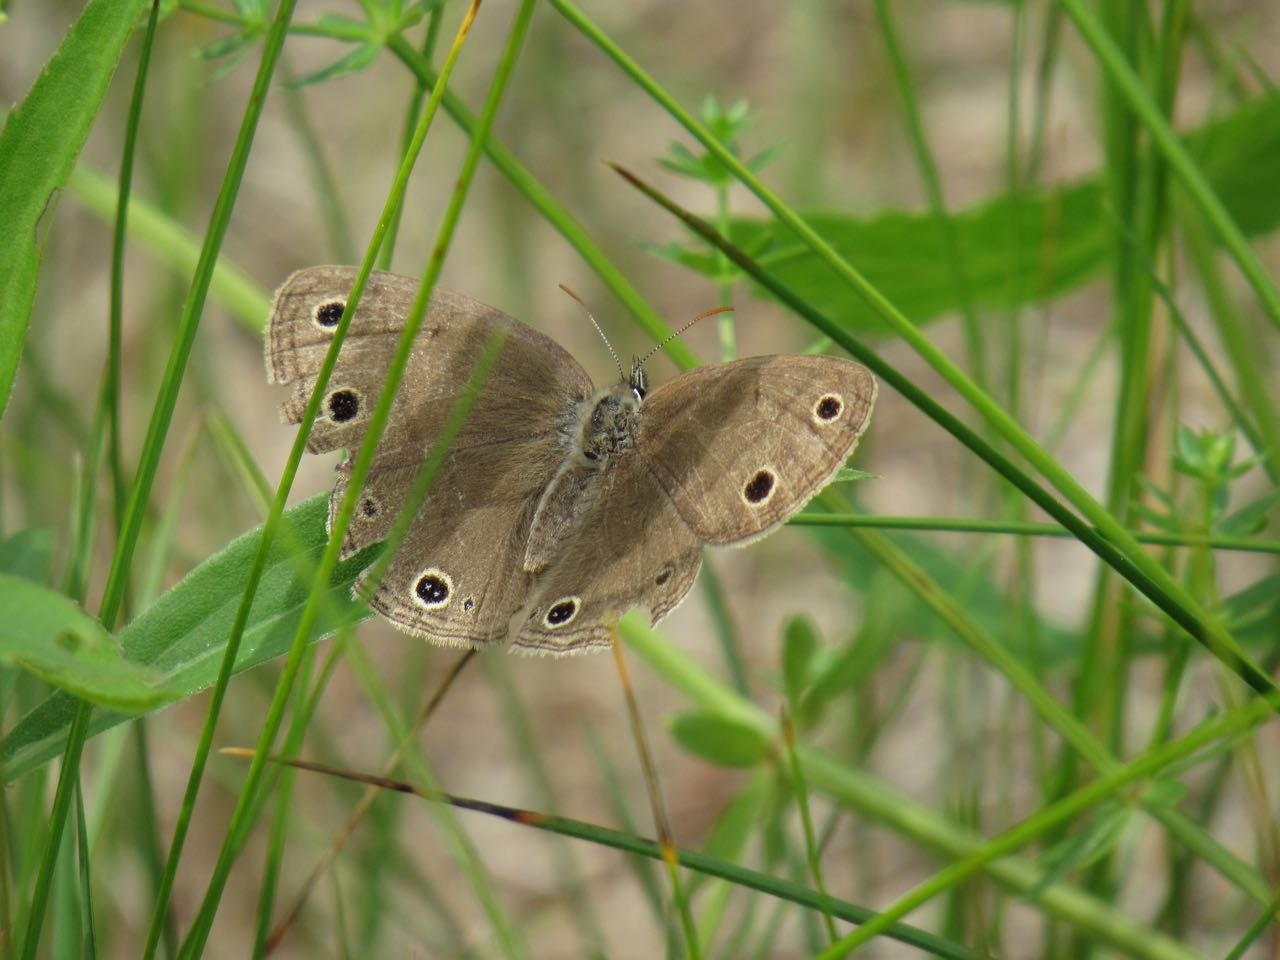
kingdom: Animalia
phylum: Arthropoda
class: Insecta
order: Lepidoptera
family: Nymphalidae
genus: Euptychia
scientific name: Euptychia cymela
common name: Little Wood Satyr
